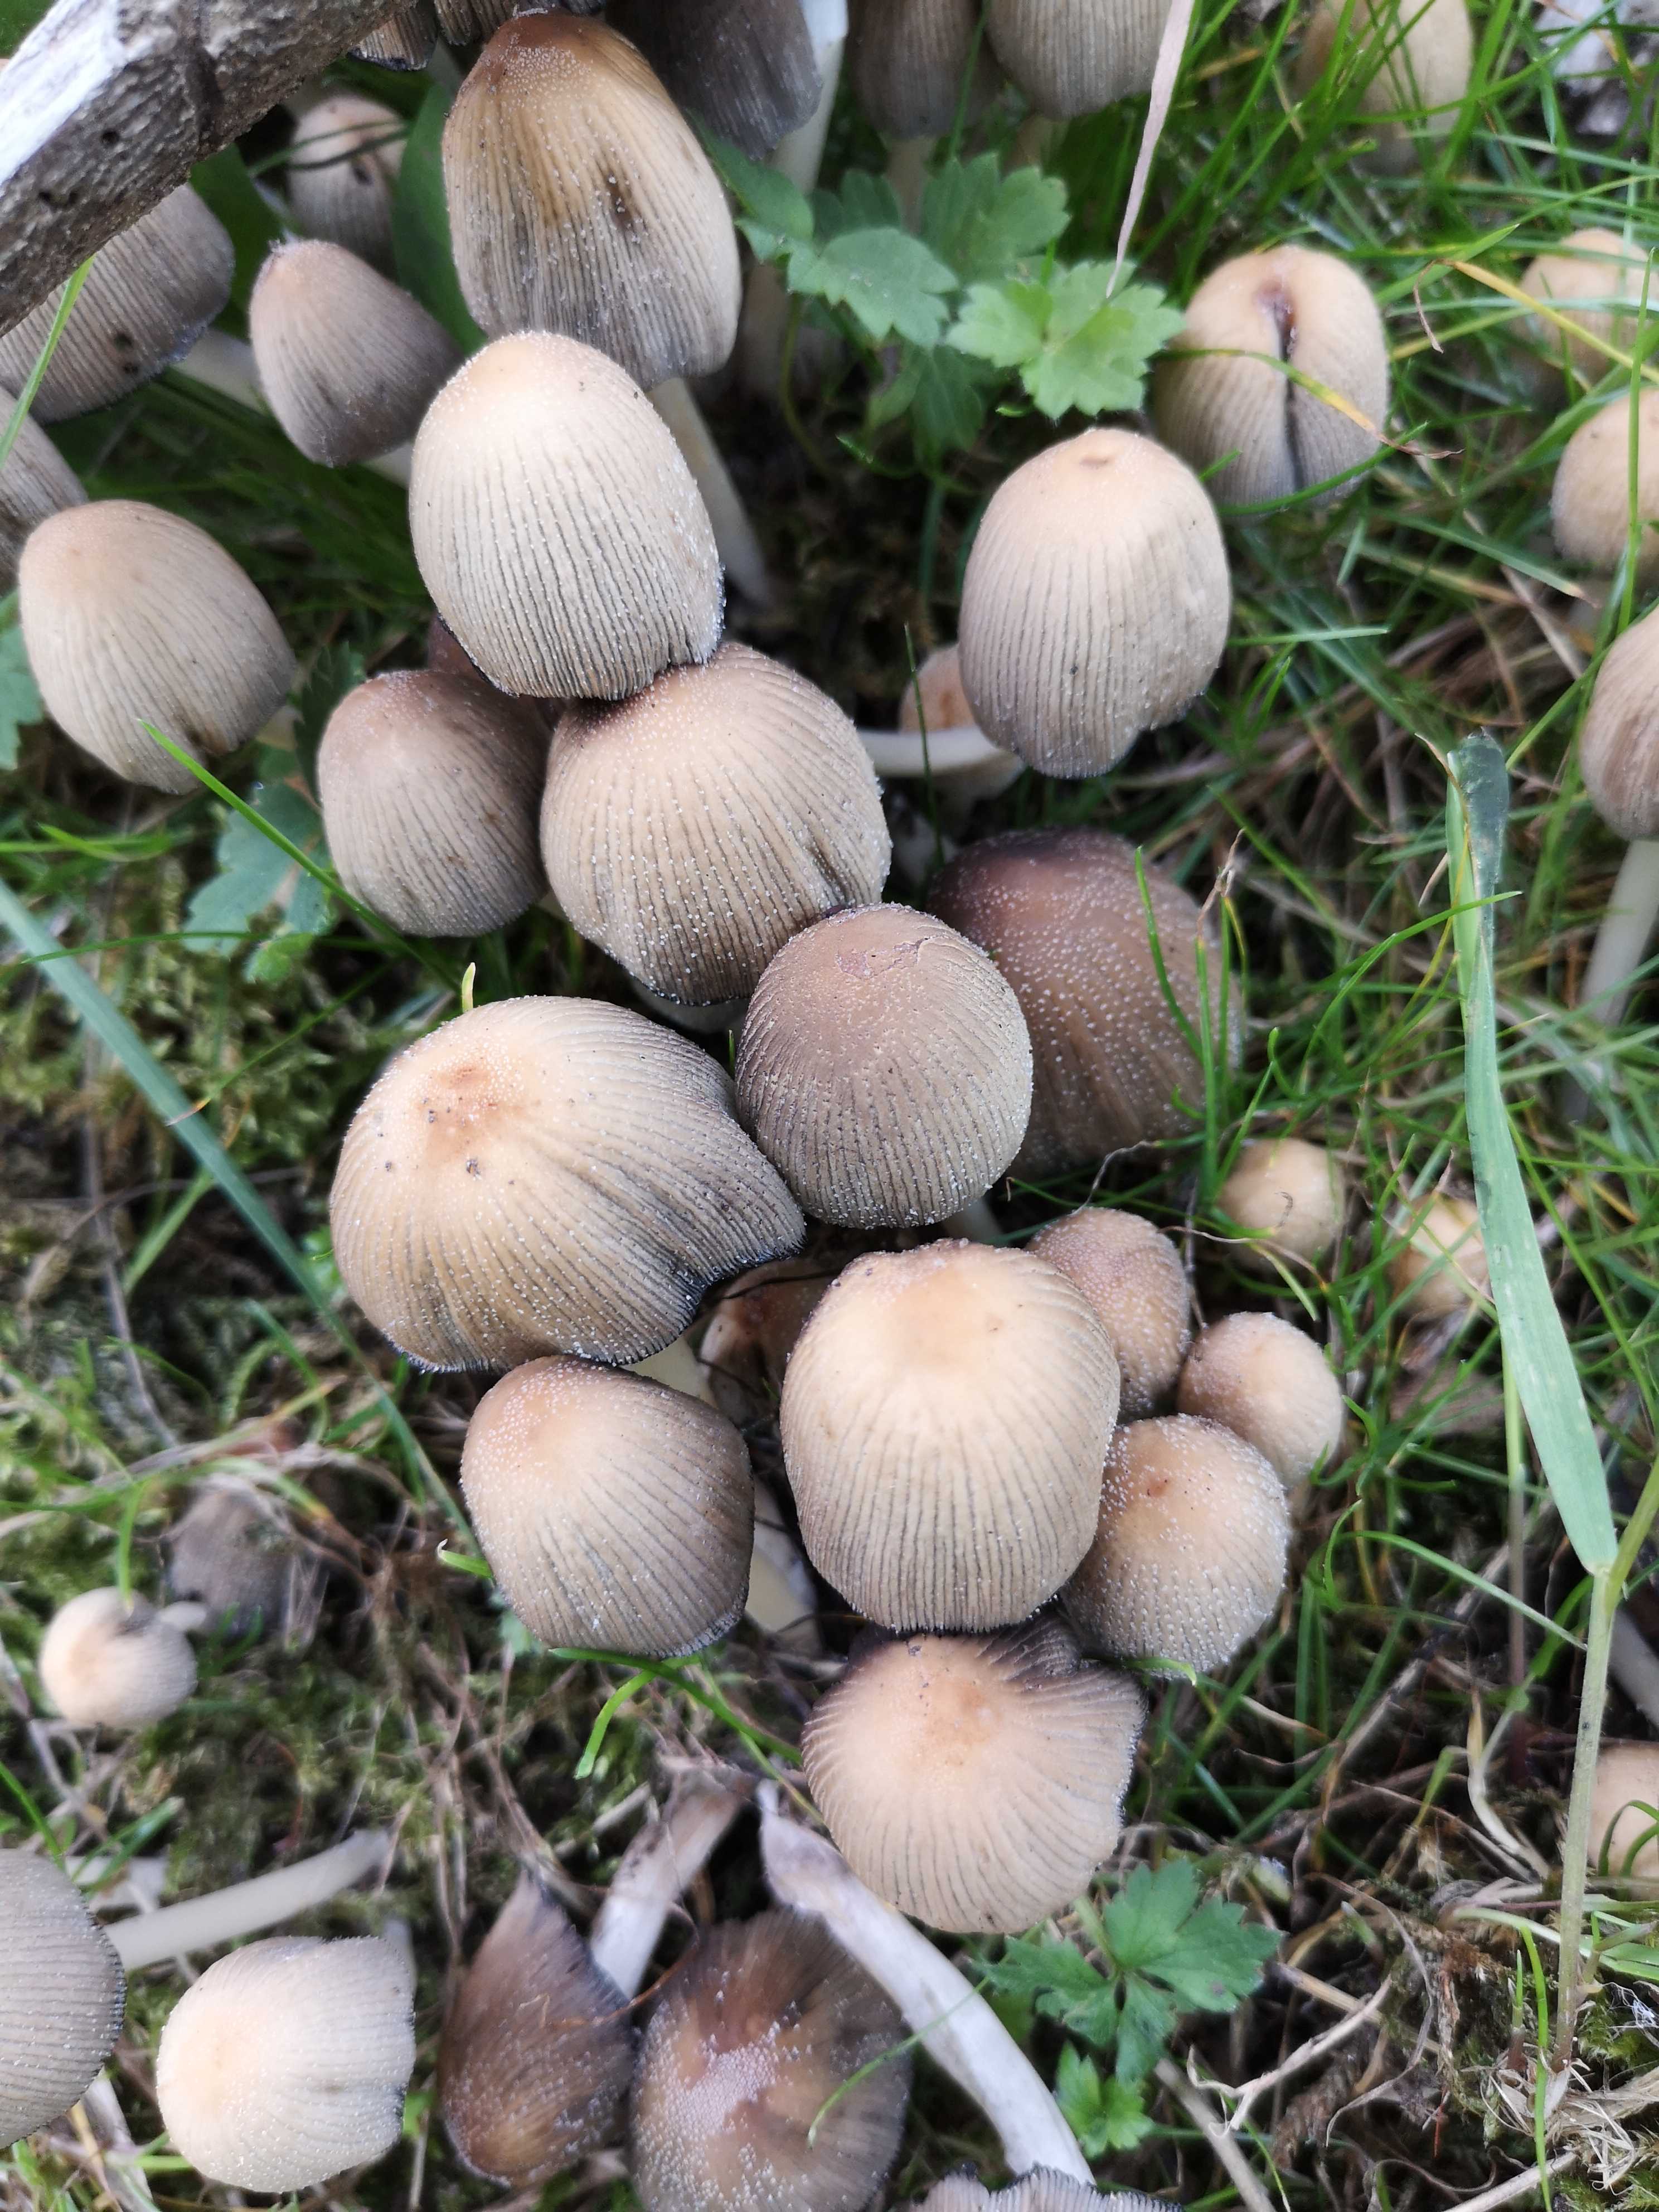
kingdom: Fungi
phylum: Basidiomycota
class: Agaricomycetes
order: Agaricales
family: Psathyrellaceae
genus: Coprinellus
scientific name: Coprinellus micaceus
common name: glimmer-blækhat
